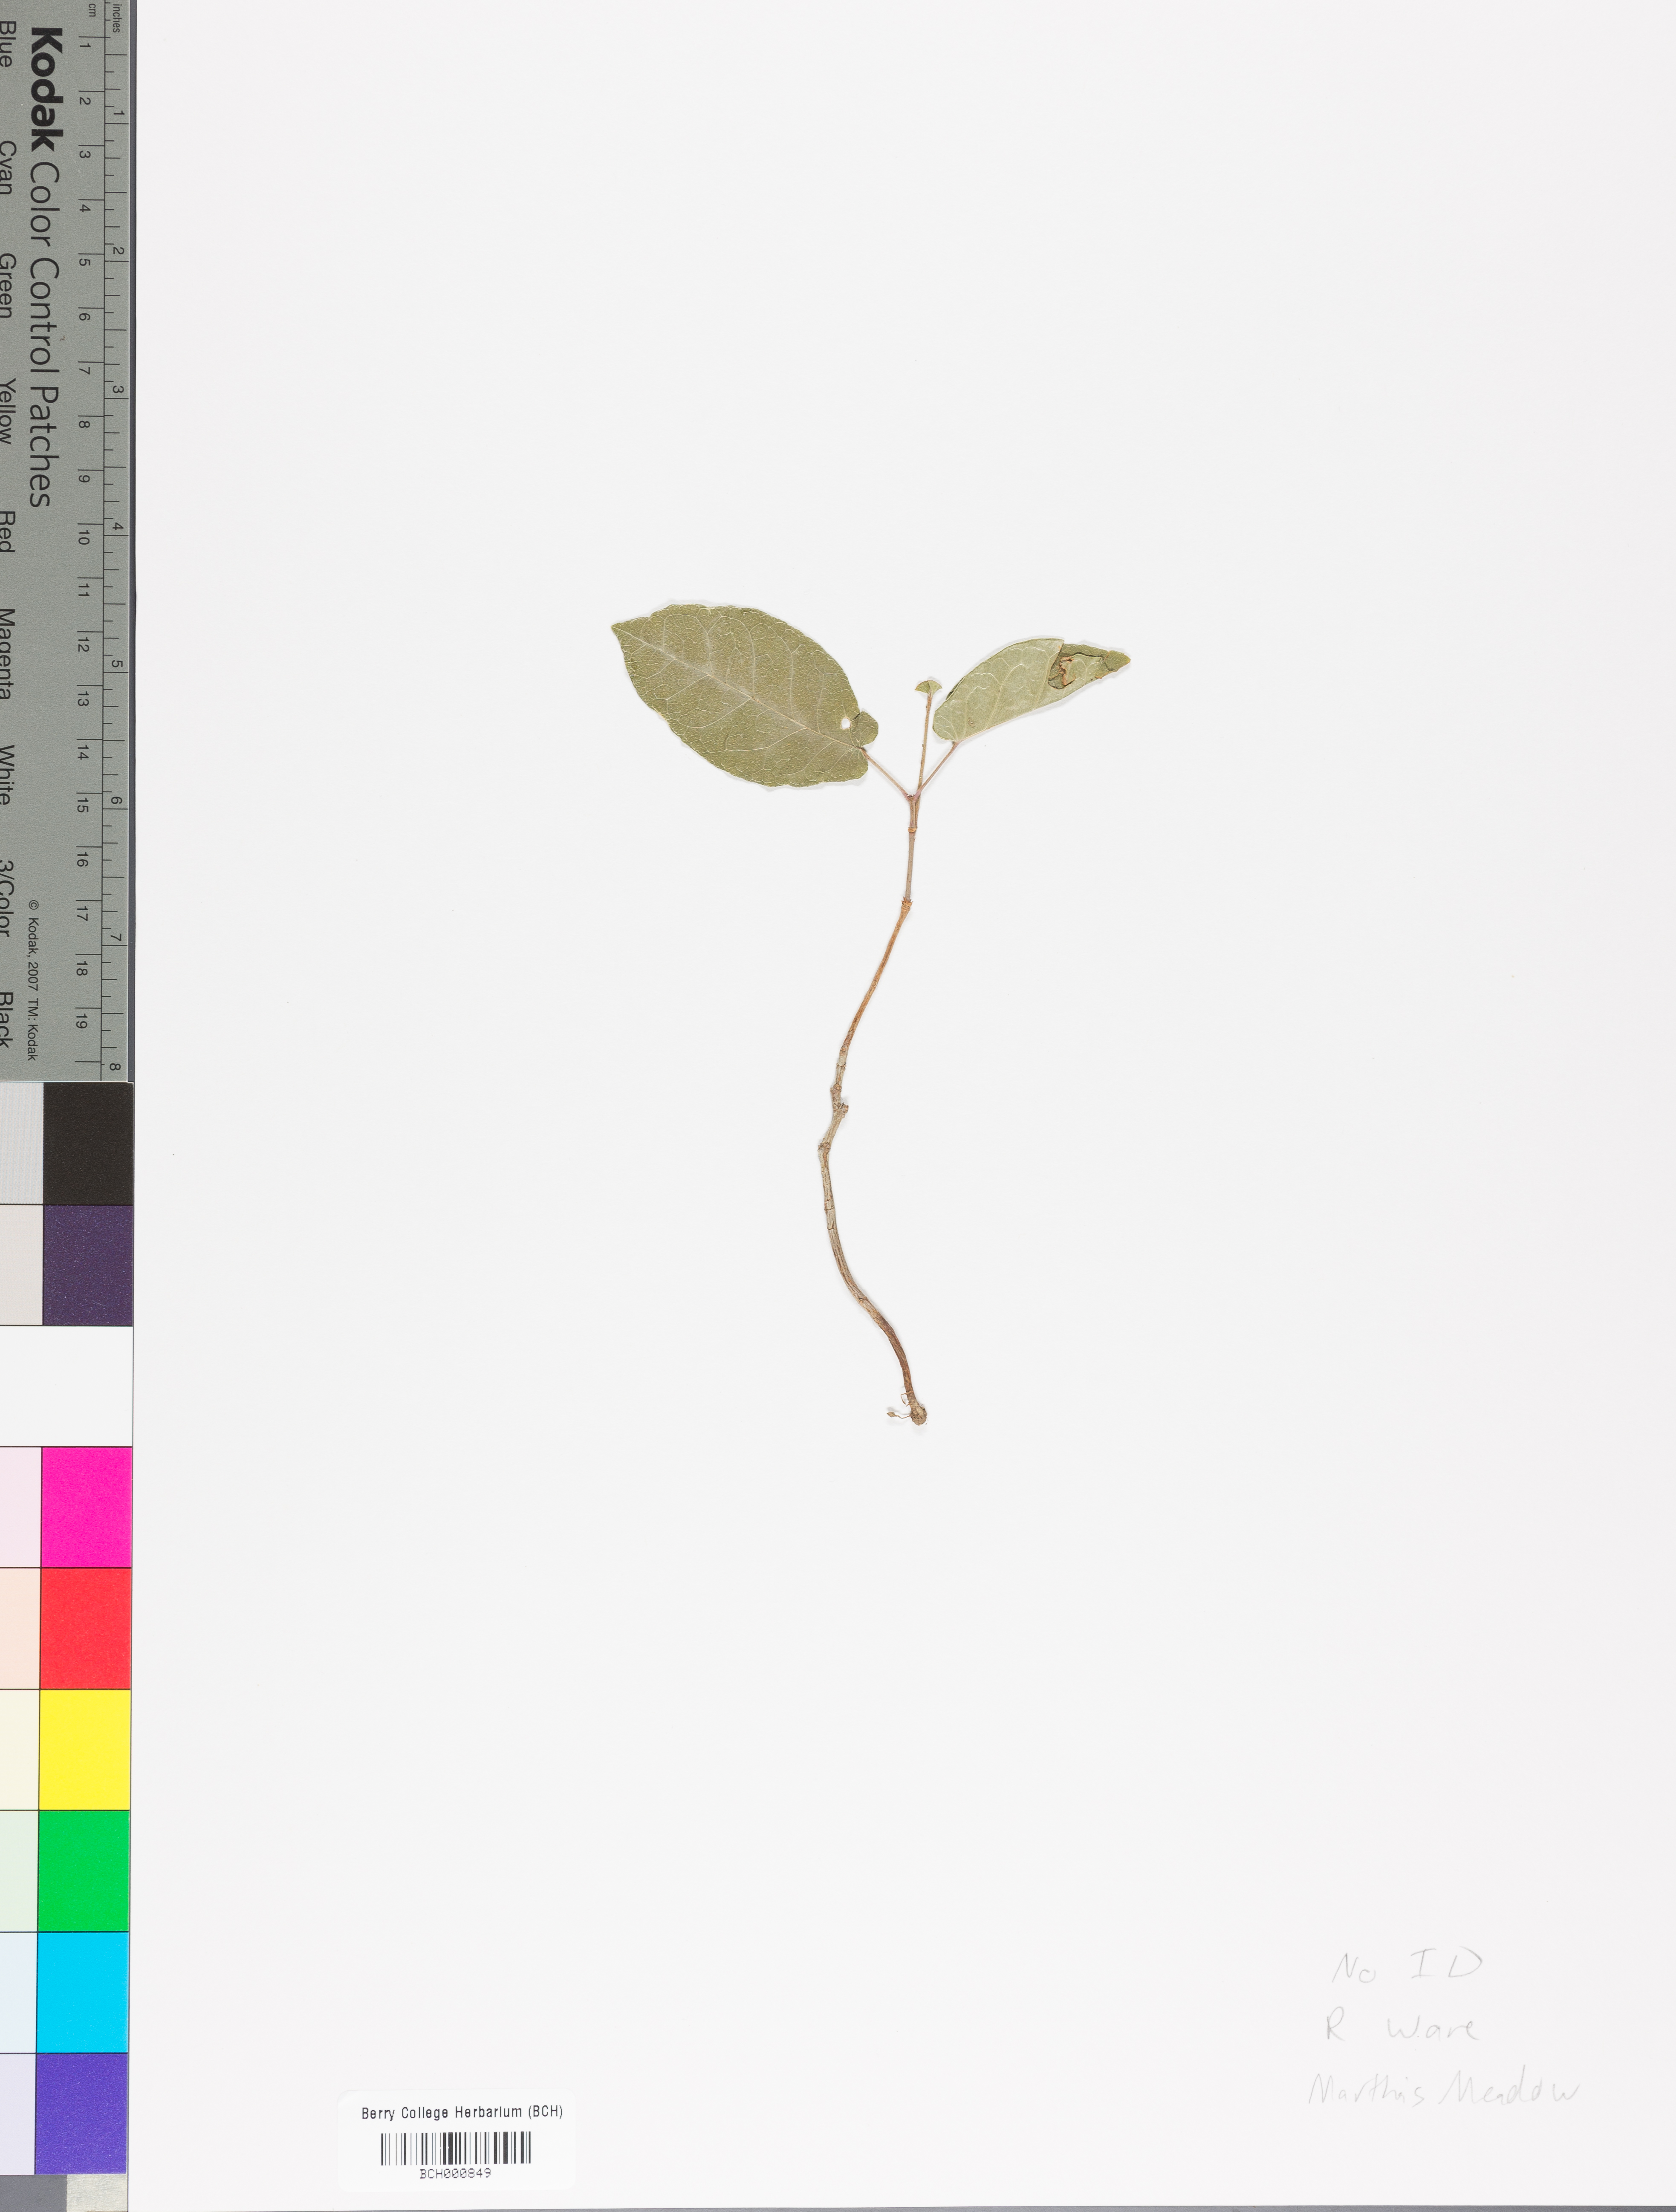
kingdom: Plantae
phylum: Tracheophyta
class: Magnoliopsida
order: Lamiales
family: Acanthaceae
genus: Adhatoda
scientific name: Adhatoda
